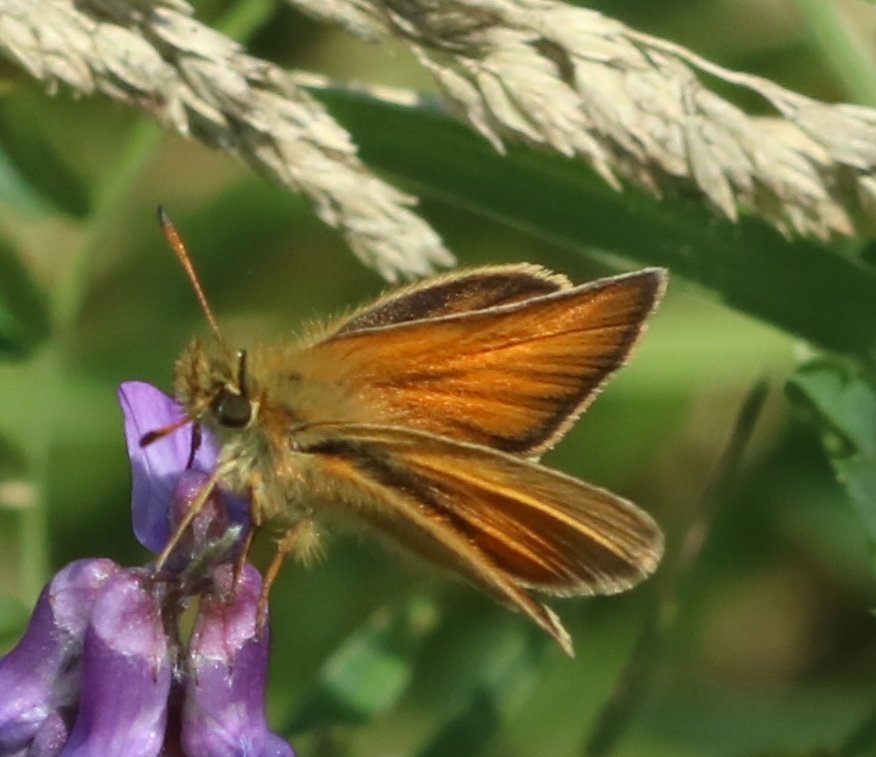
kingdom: Animalia
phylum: Arthropoda
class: Insecta
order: Lepidoptera
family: Hesperiidae
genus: Thymelicus
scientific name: Thymelicus lineola
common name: European Skipper
